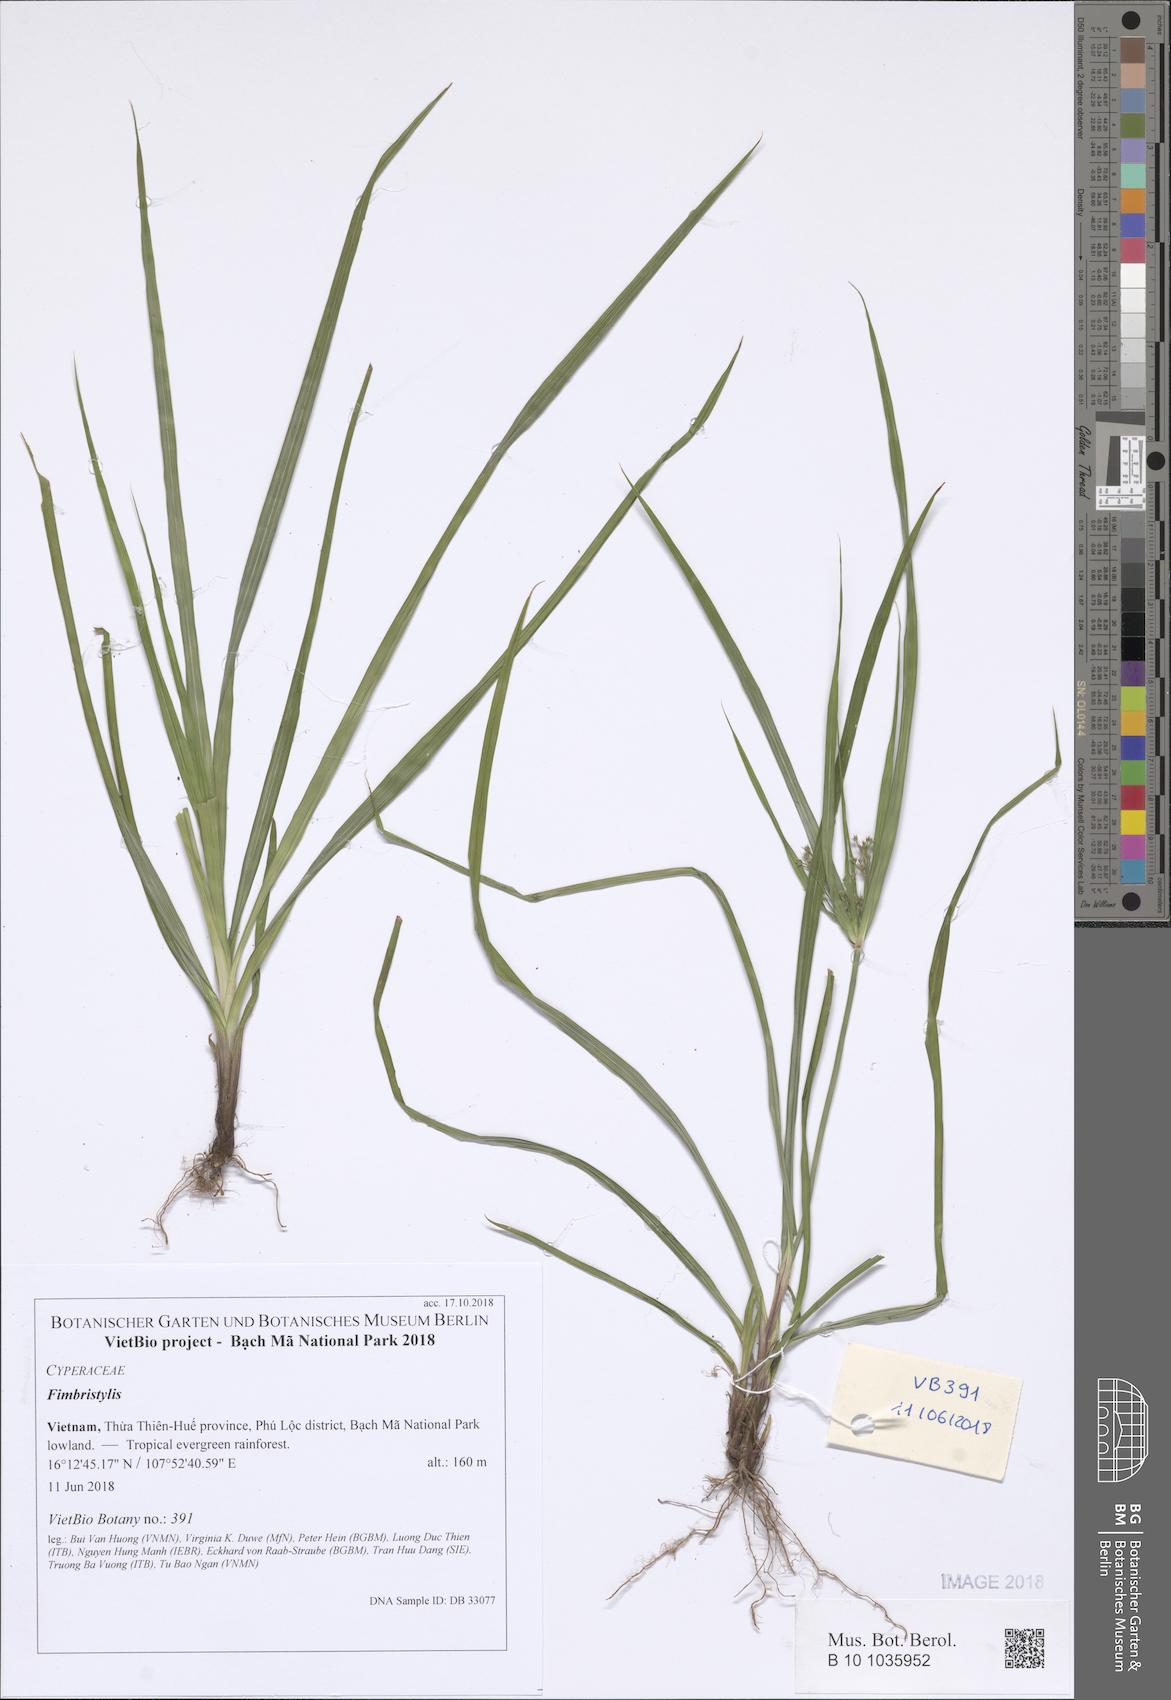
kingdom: Plantae
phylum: Tracheophyta
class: Liliopsida
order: Poales
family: Cyperaceae
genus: Fimbristylis
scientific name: Fimbristylis
